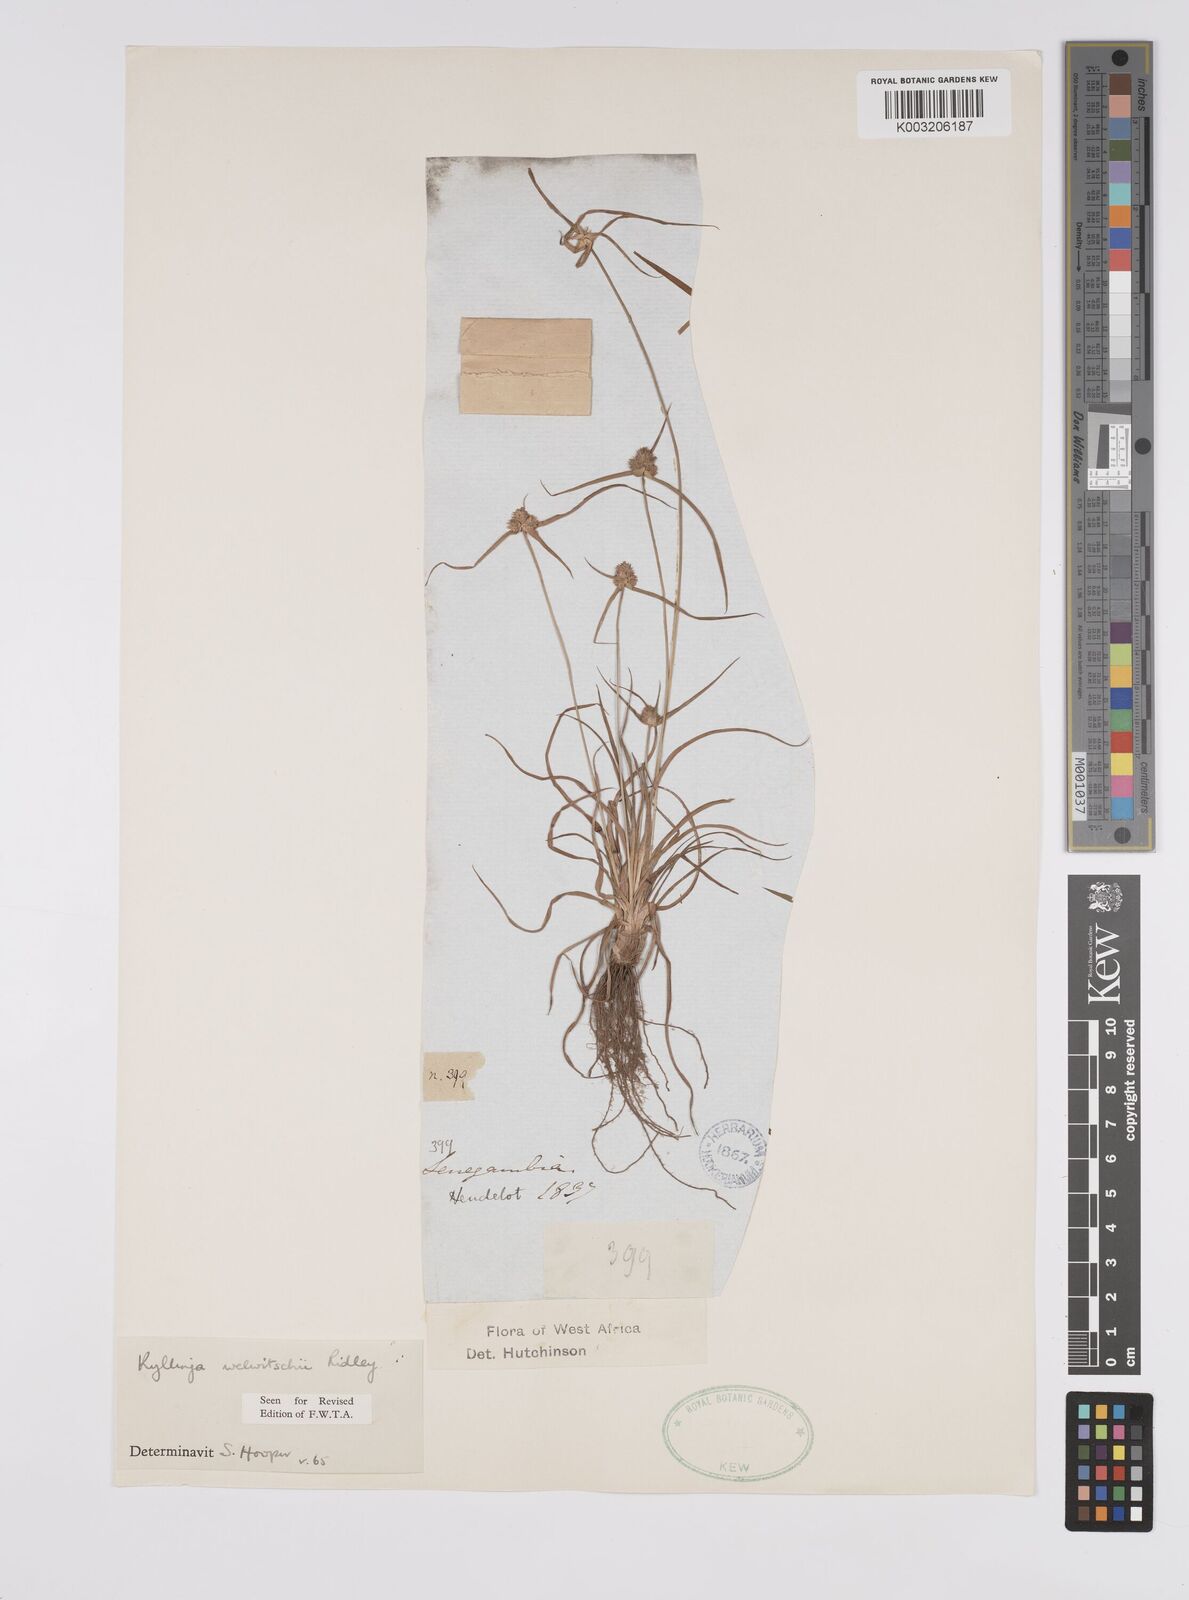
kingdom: Plantae
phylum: Tracheophyta
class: Liliopsida
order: Poales
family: Cyperaceae
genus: Cyperus
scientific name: Cyperus
